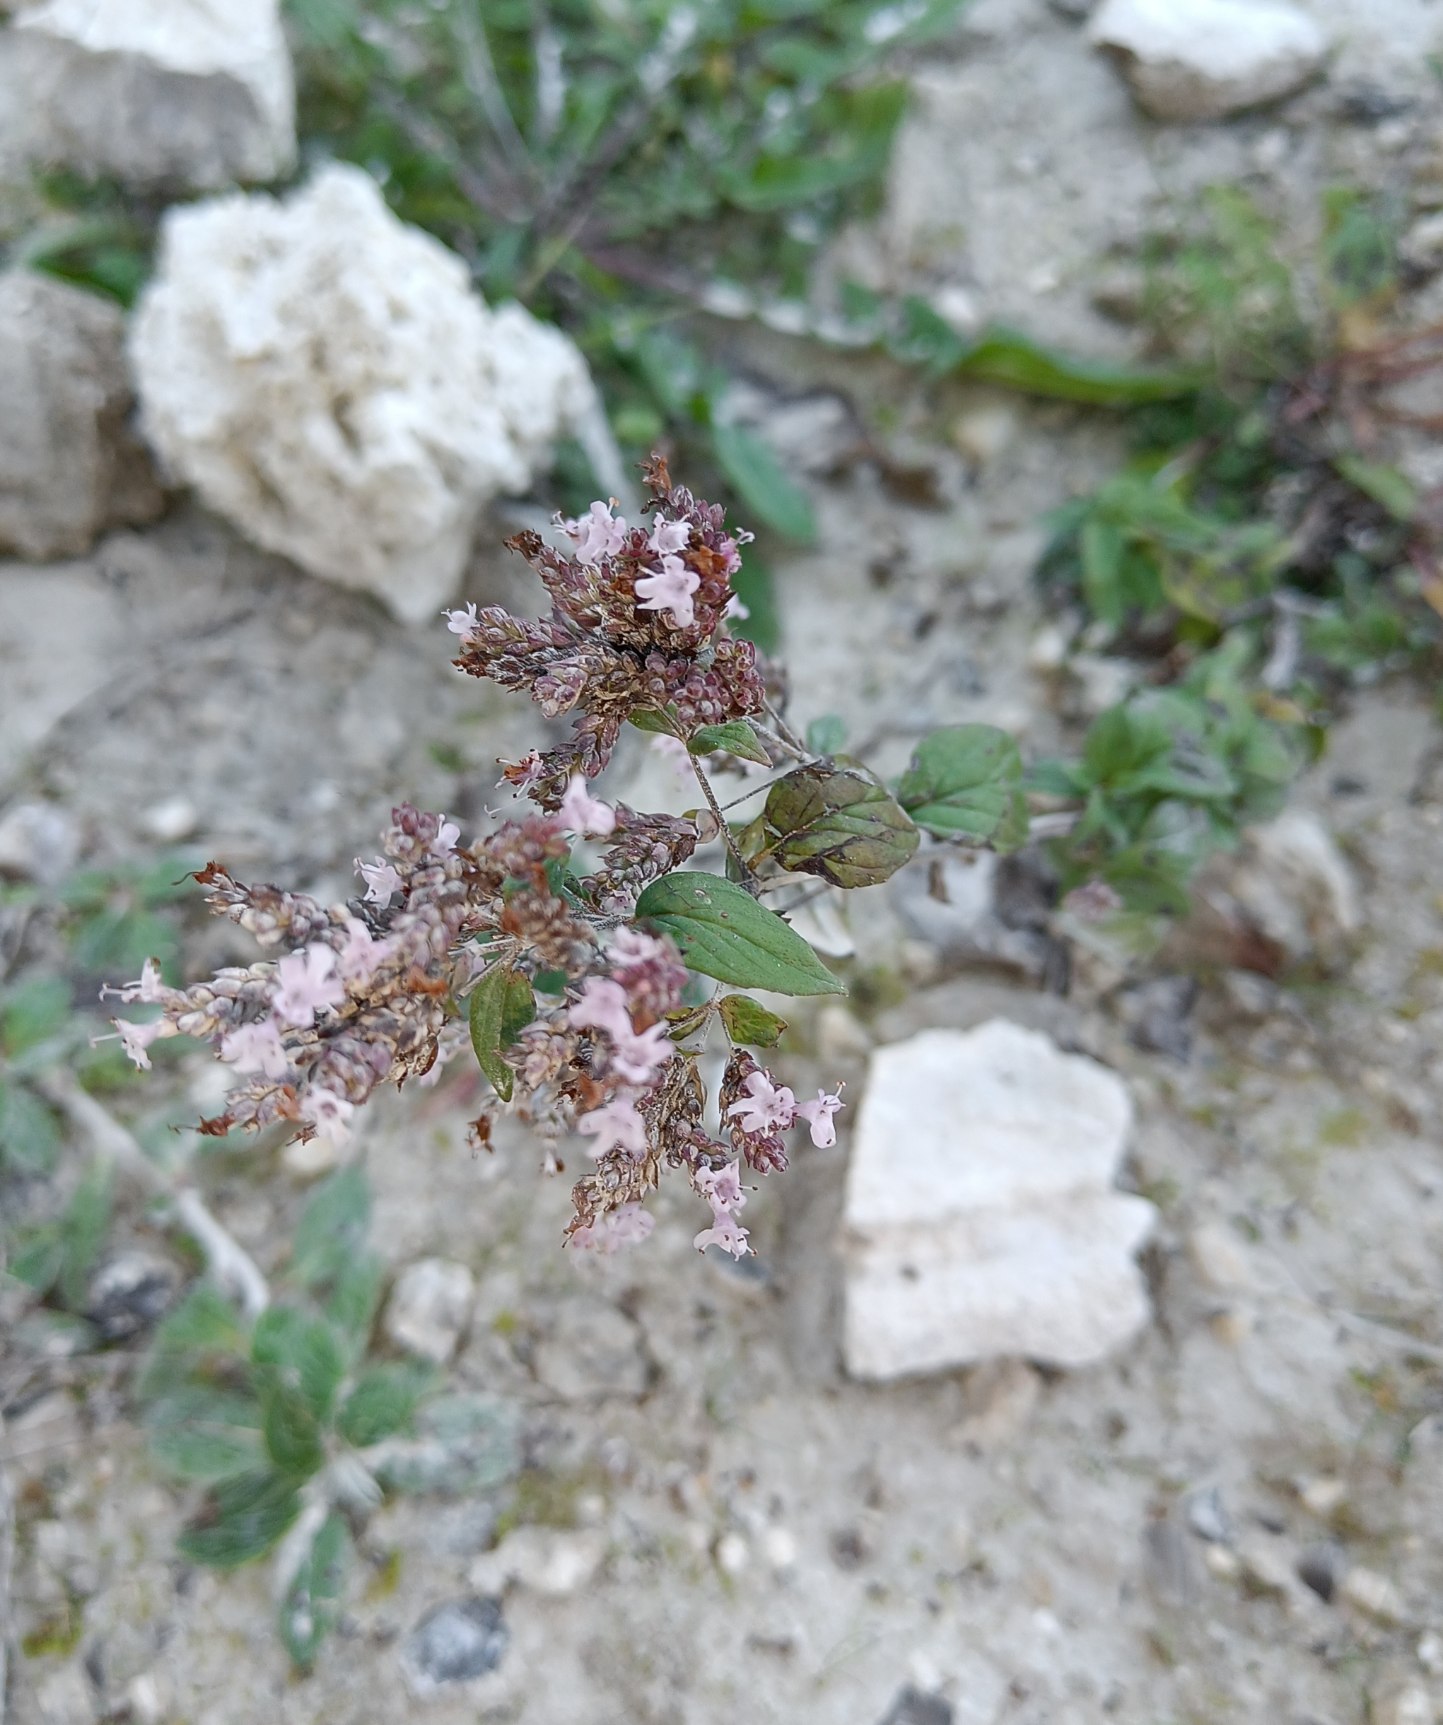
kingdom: Plantae
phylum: Tracheophyta
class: Magnoliopsida
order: Lamiales
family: Lamiaceae
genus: Origanum
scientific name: Origanum vulgare
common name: Merian
